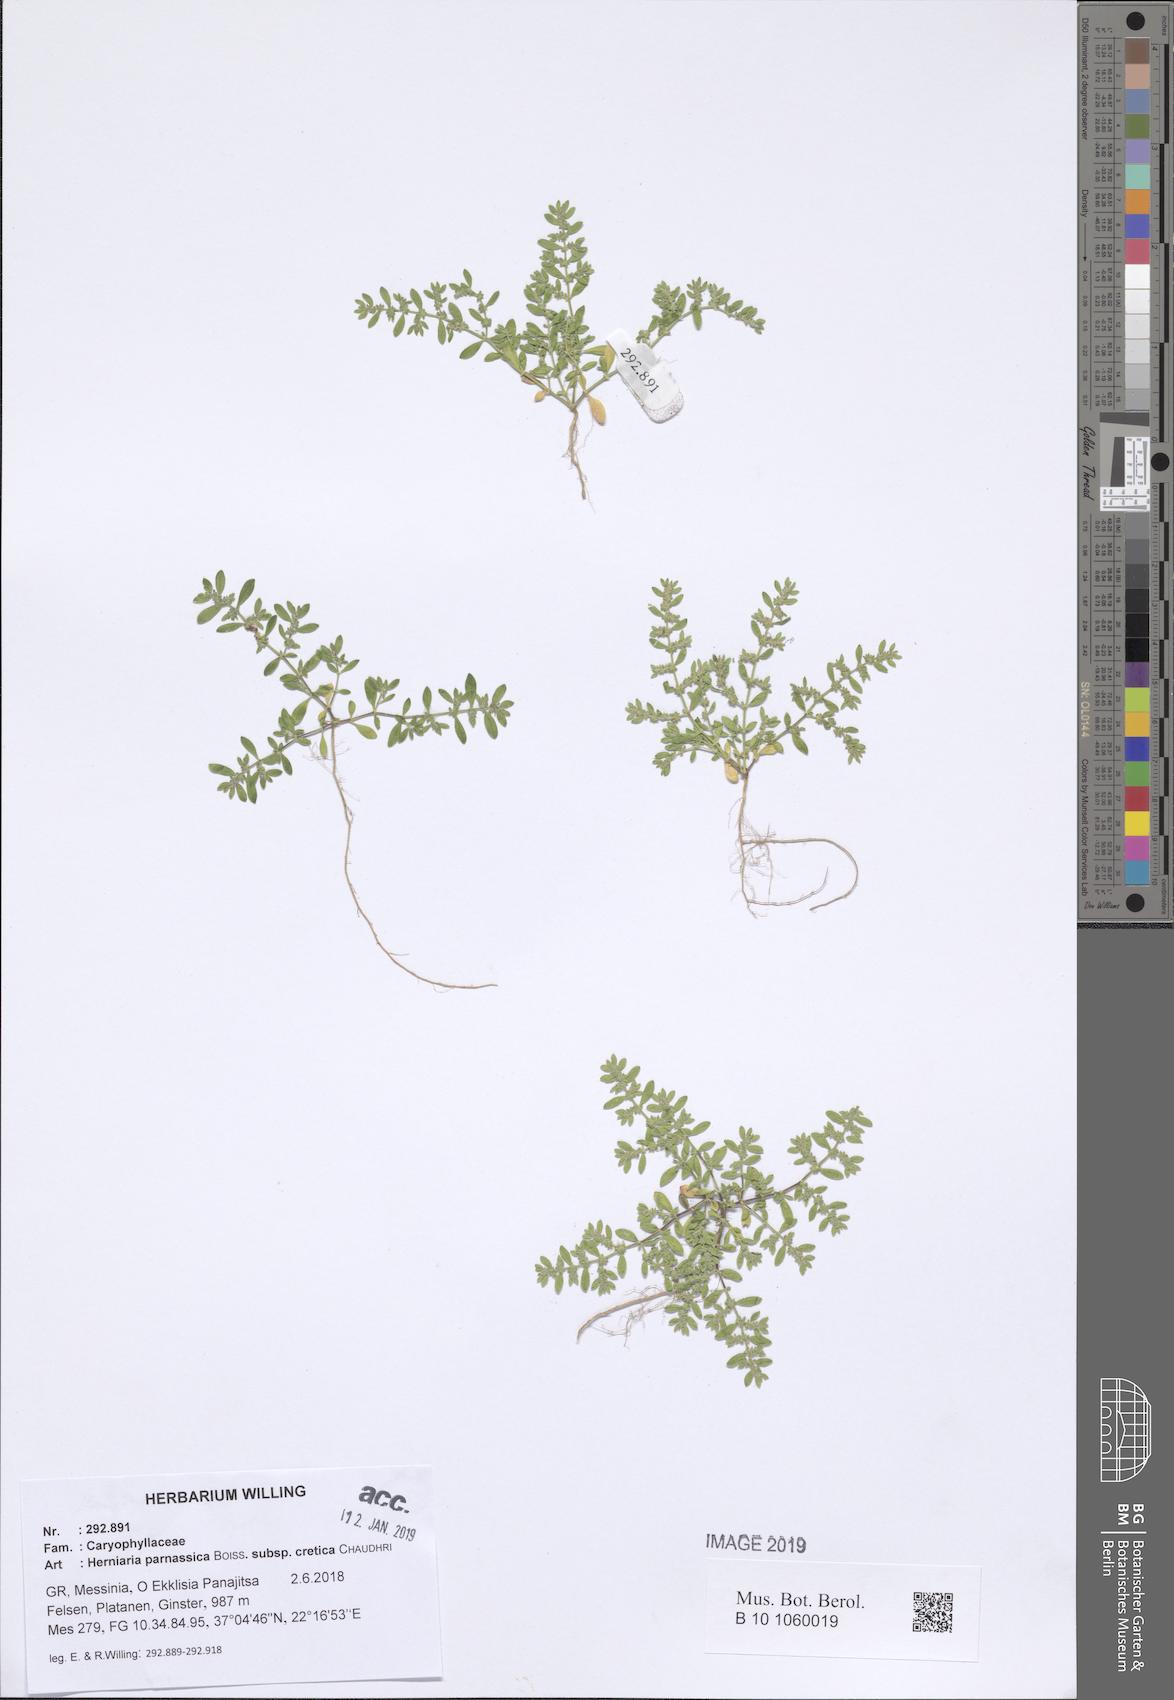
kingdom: Plantae
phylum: Tracheophyta
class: Magnoliopsida
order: Caryophyllales
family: Caryophyllaceae
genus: Herniaria
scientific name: Herniaria parnassica
